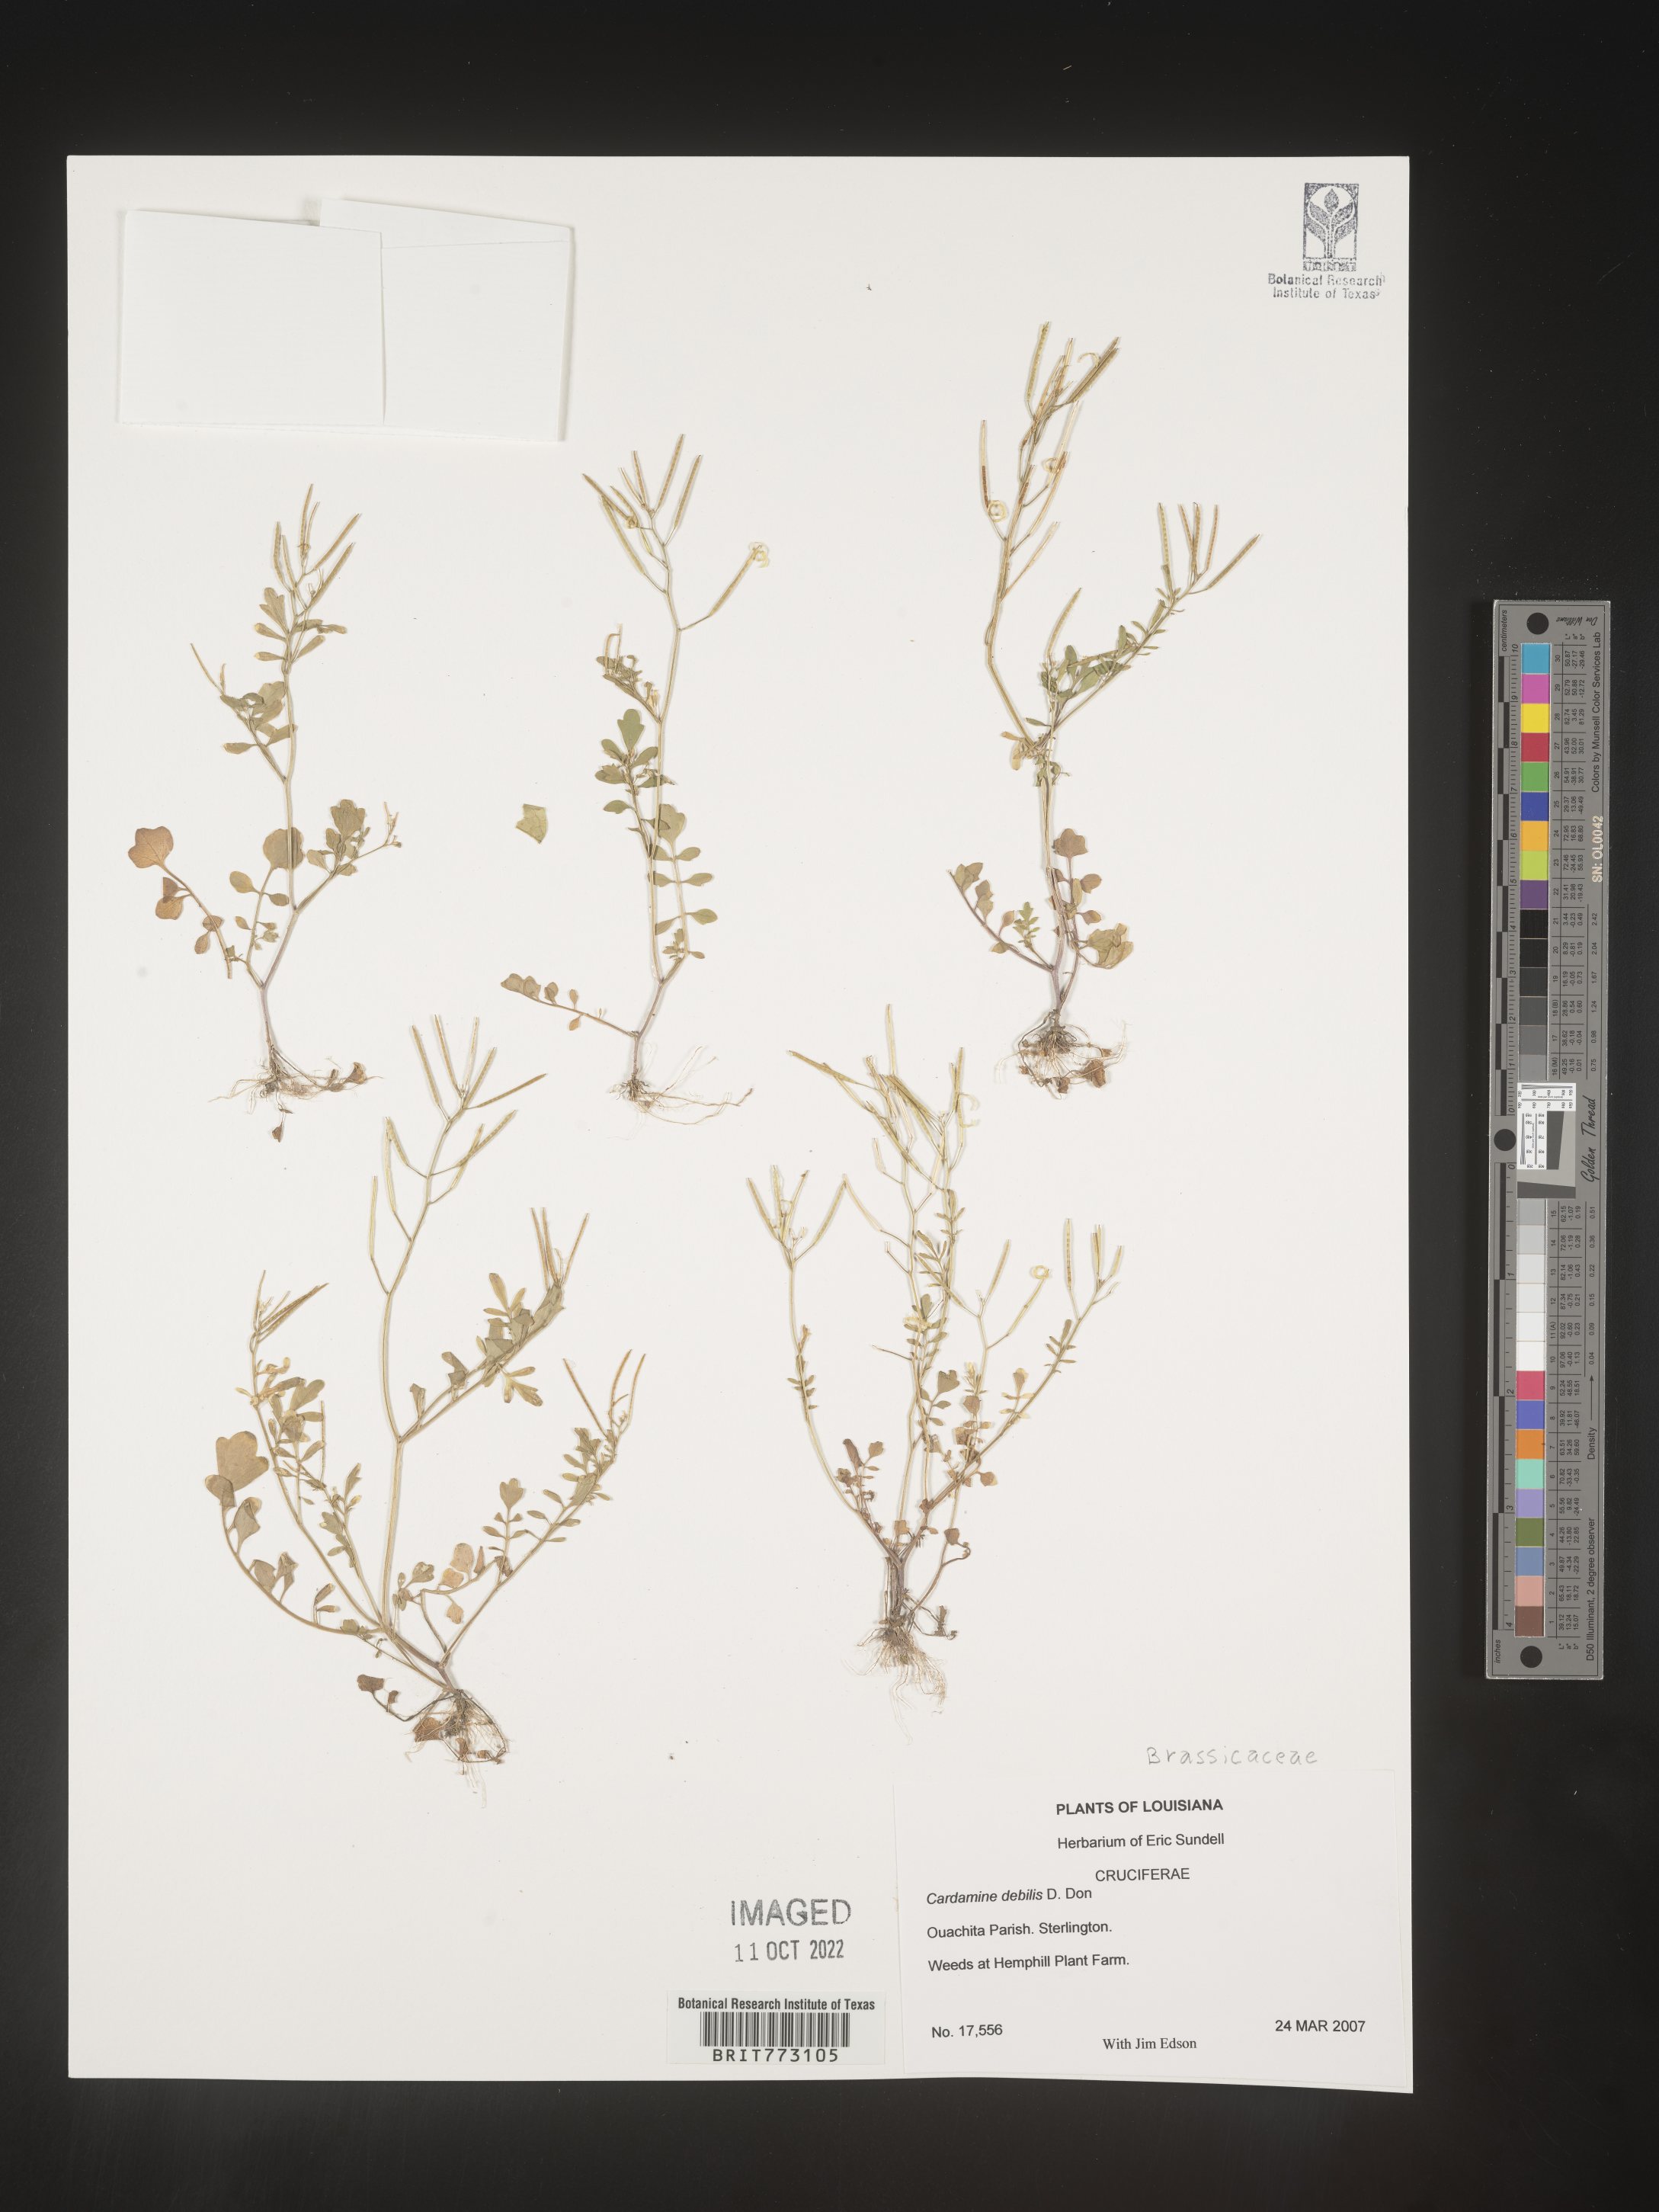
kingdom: Plantae
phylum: Tracheophyta
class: Magnoliopsida
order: Brassicales
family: Brassicaceae
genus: Cardamine
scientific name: Cardamine
